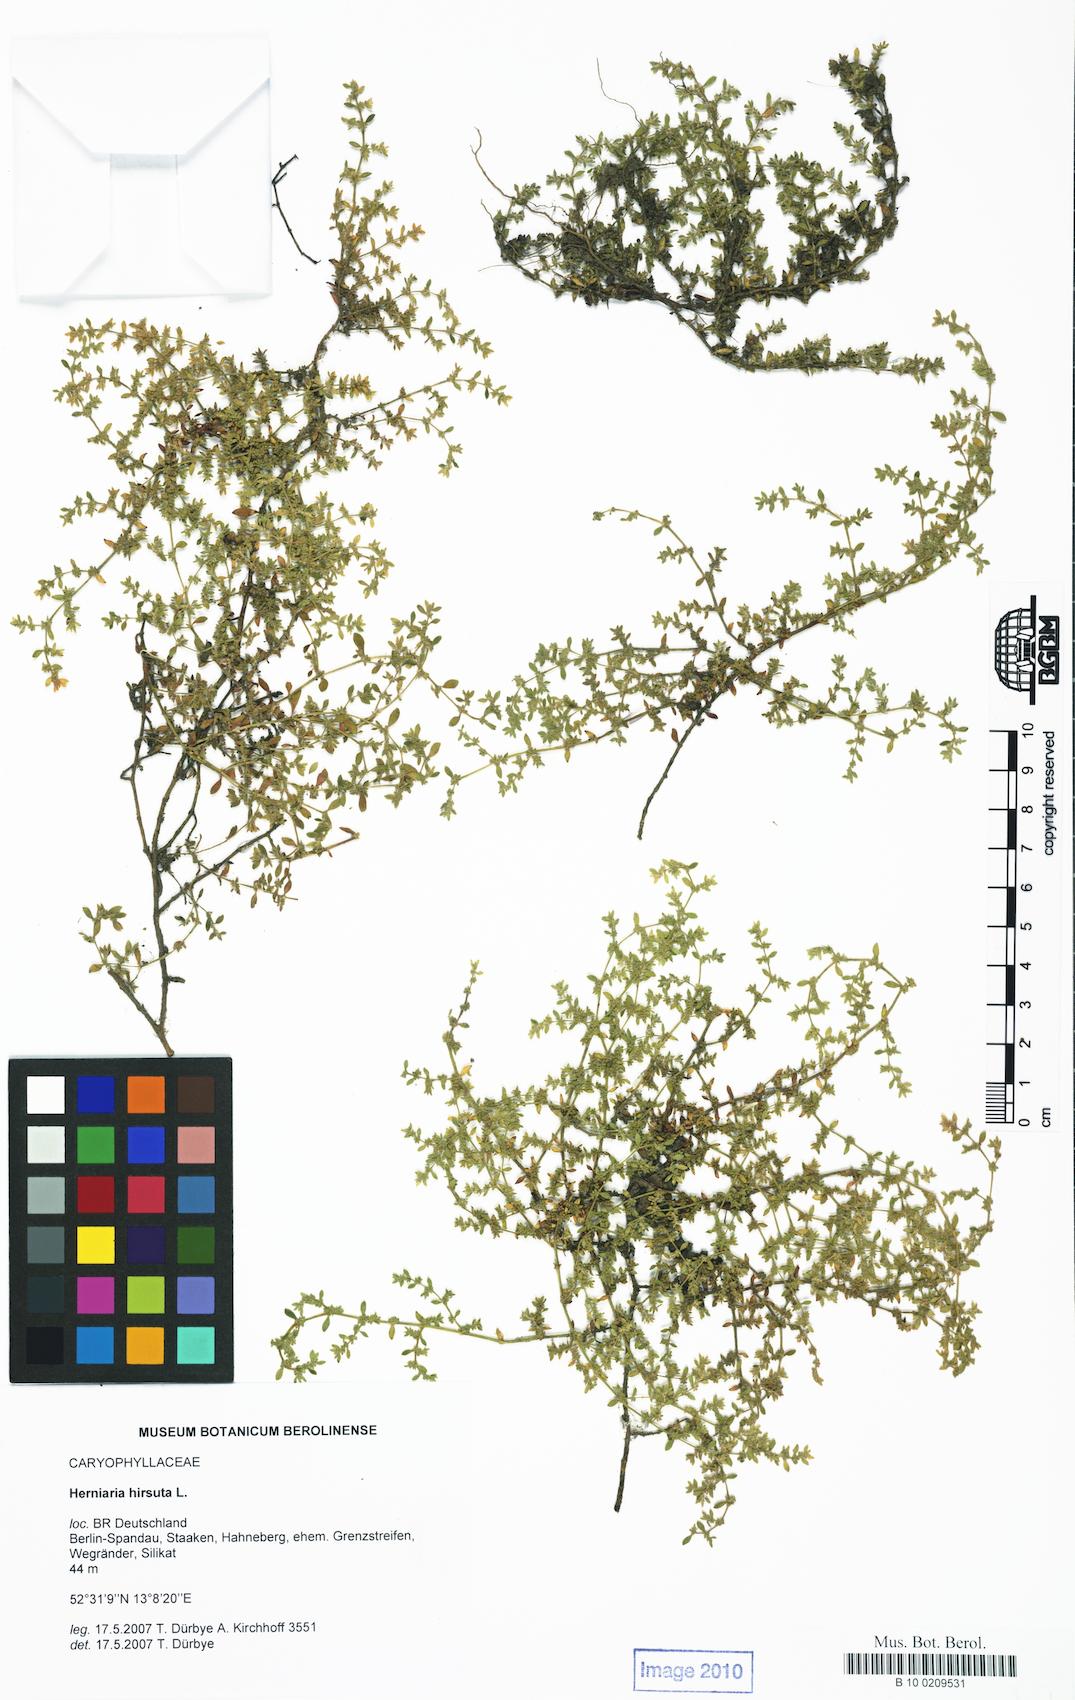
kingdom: Plantae
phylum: Tracheophyta
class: Magnoliopsida
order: Caryophyllales
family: Caryophyllaceae
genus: Herniaria
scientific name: Herniaria hirsuta
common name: Hairy rupturewort
